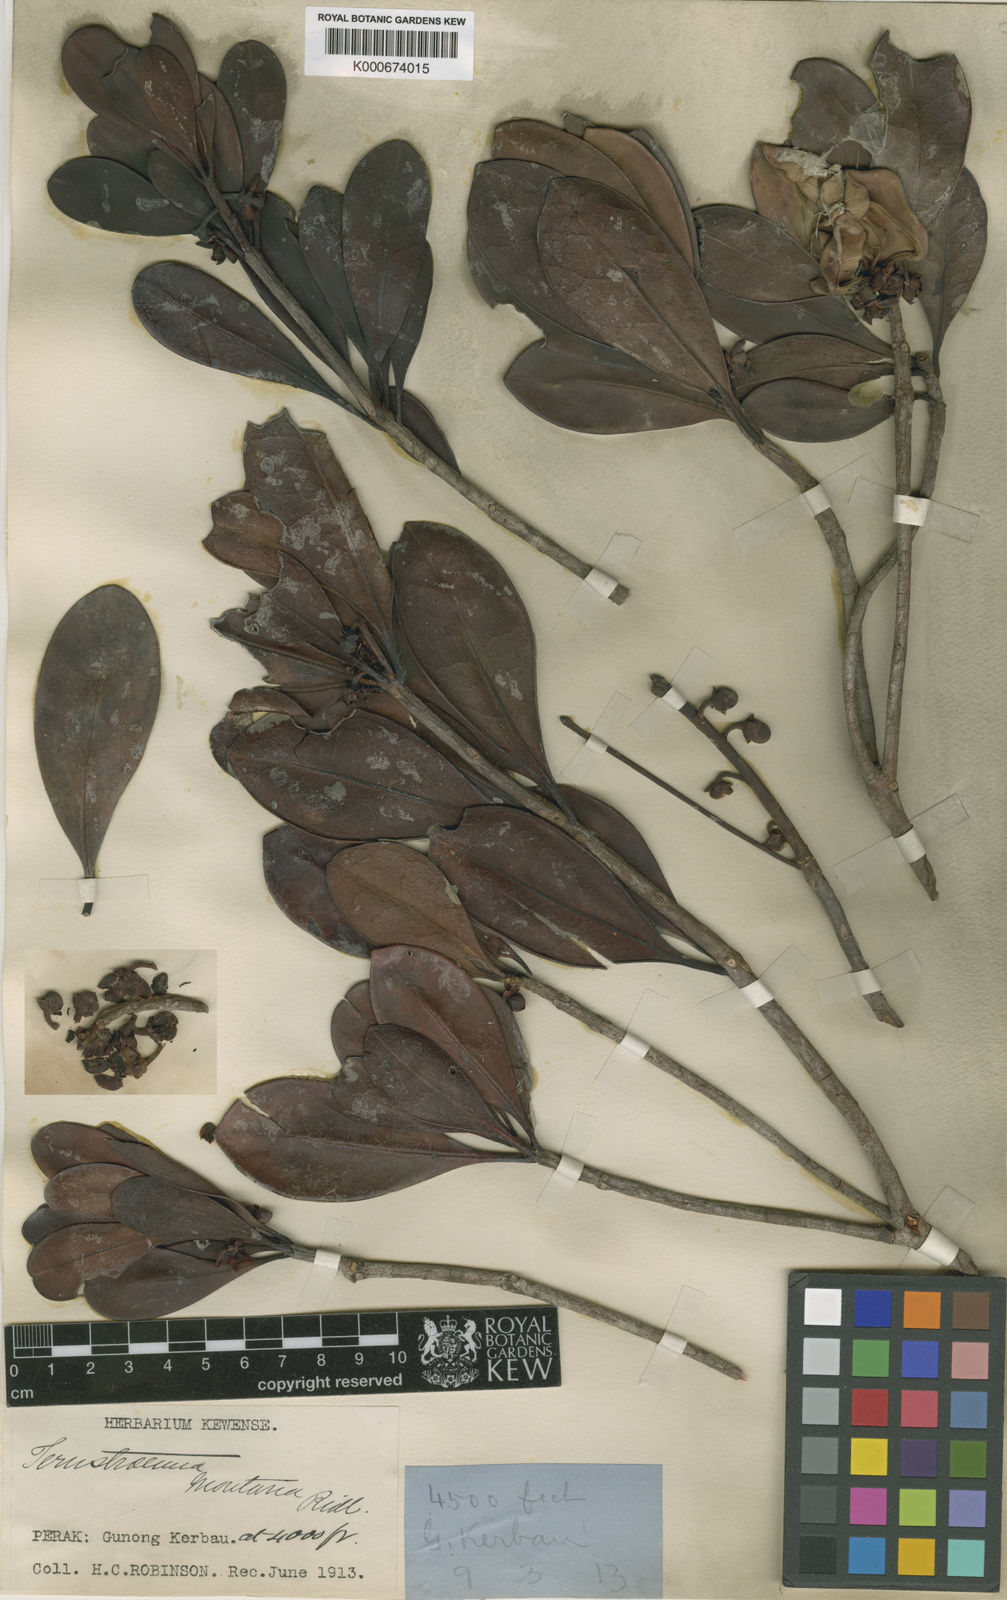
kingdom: Plantae
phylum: Tracheophyta
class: Magnoliopsida
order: Ericales
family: Pentaphylacaceae
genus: Ternstroemia
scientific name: Ternstroemia montana
